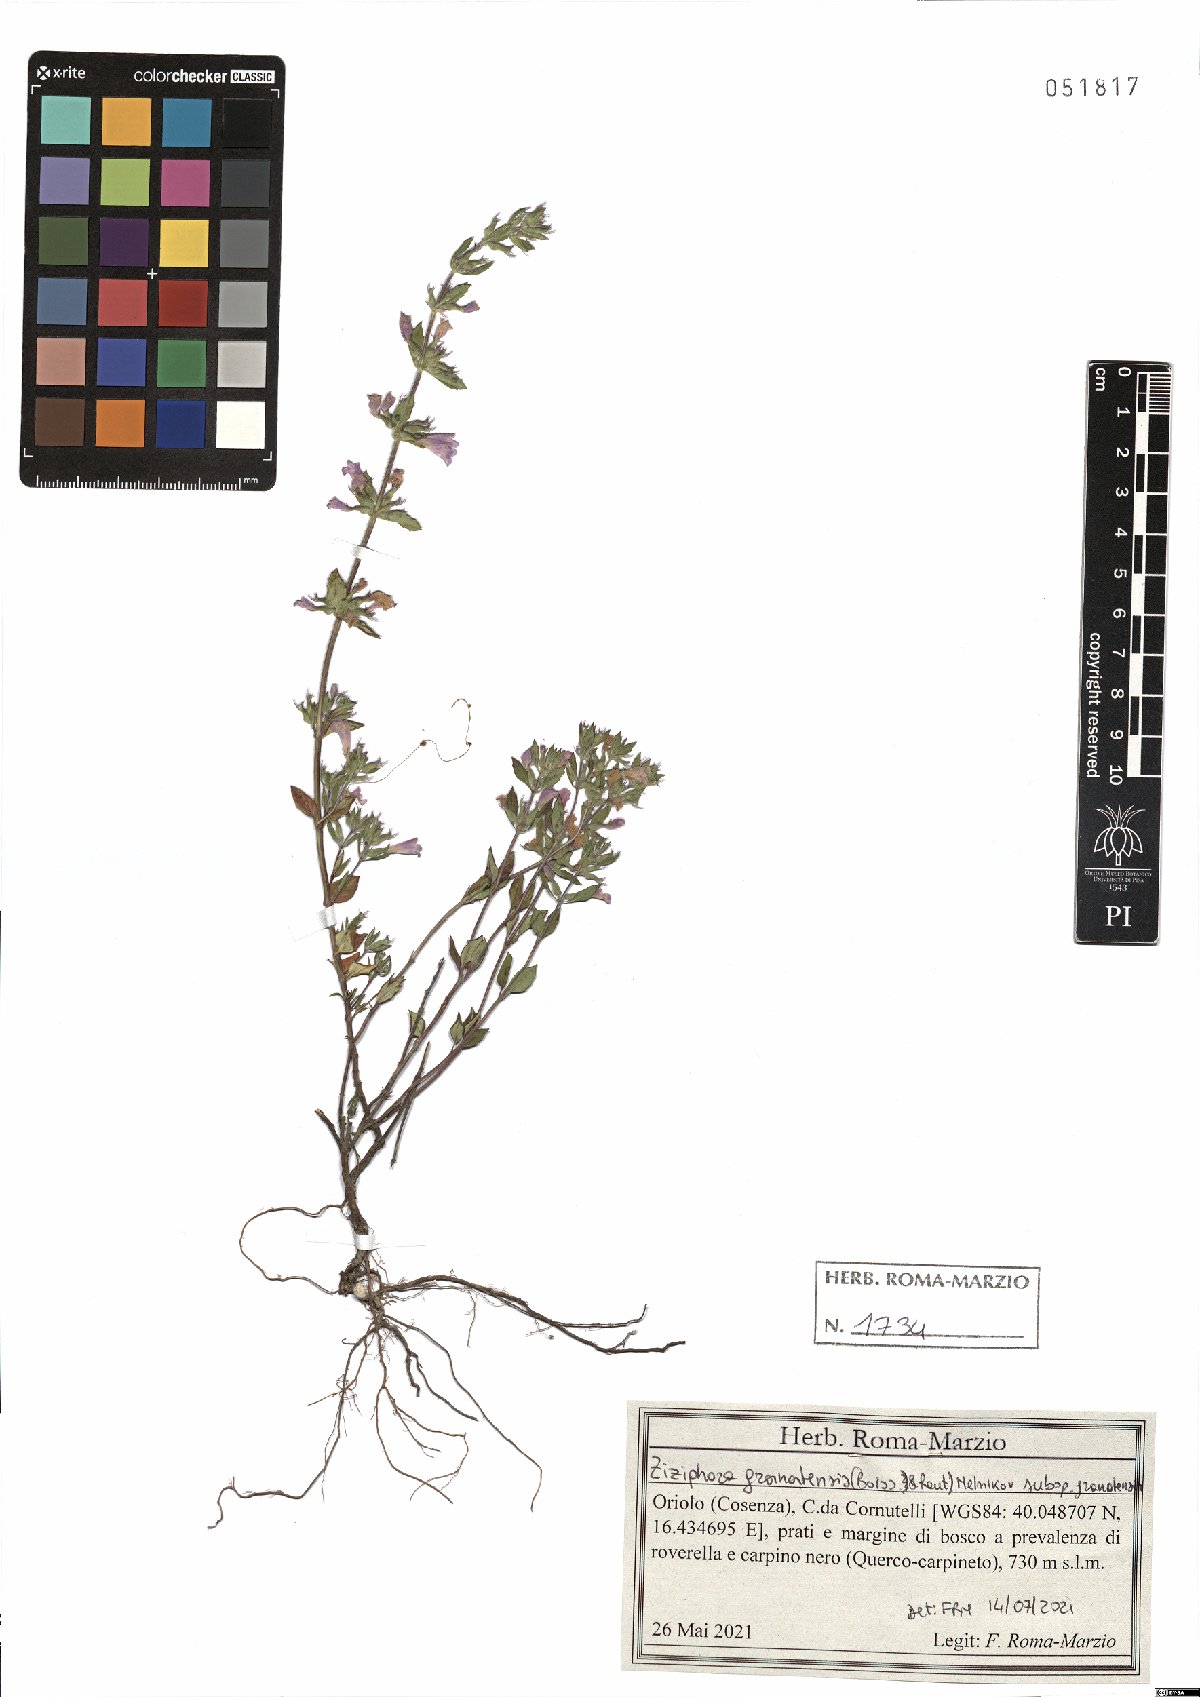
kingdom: Plantae
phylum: Tracheophyta
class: Magnoliopsida
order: Lamiales
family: Lamiaceae
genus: Clinopodium
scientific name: Clinopodium alpinum
